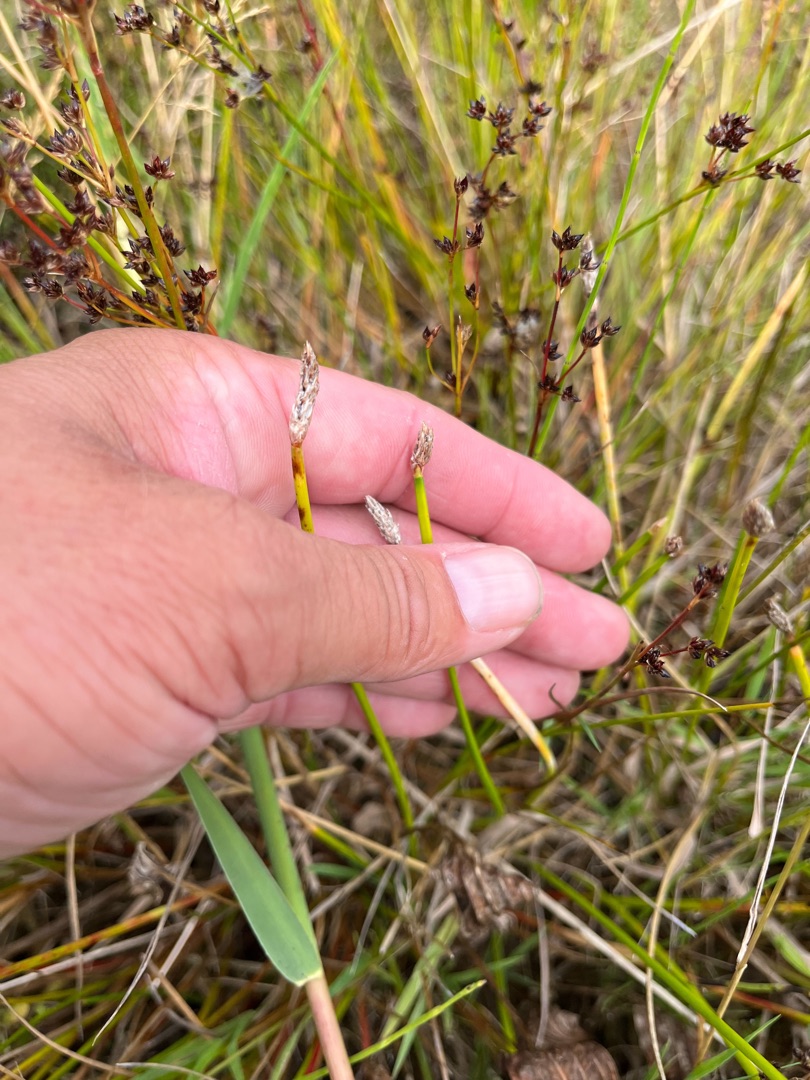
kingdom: Plantae
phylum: Tracheophyta
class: Liliopsida
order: Poales
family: Cyperaceae
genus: Eleocharis
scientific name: Eleocharis palustris
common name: Almindelig sumpstrå
